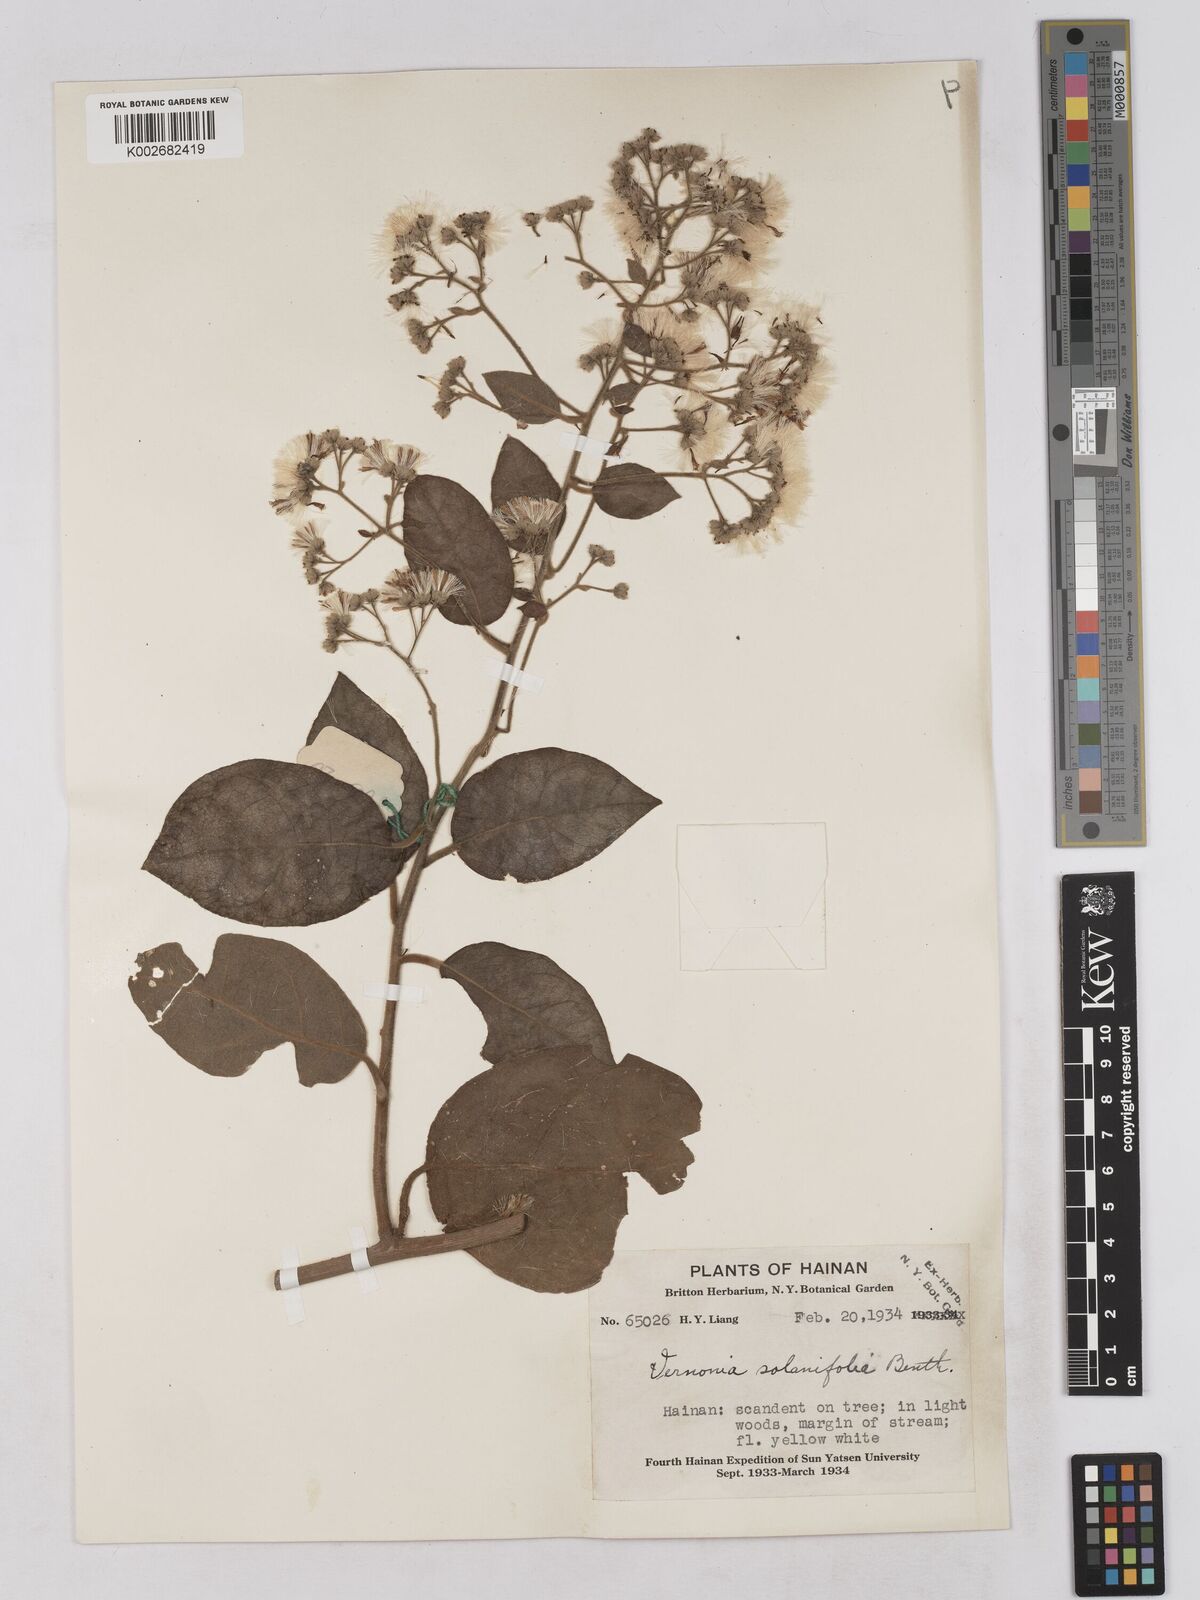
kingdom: Plantae
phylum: Tracheophyta
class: Magnoliopsida
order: Asterales
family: Asteraceae
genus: Strobocalyx
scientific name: Strobocalyx solanifolia
